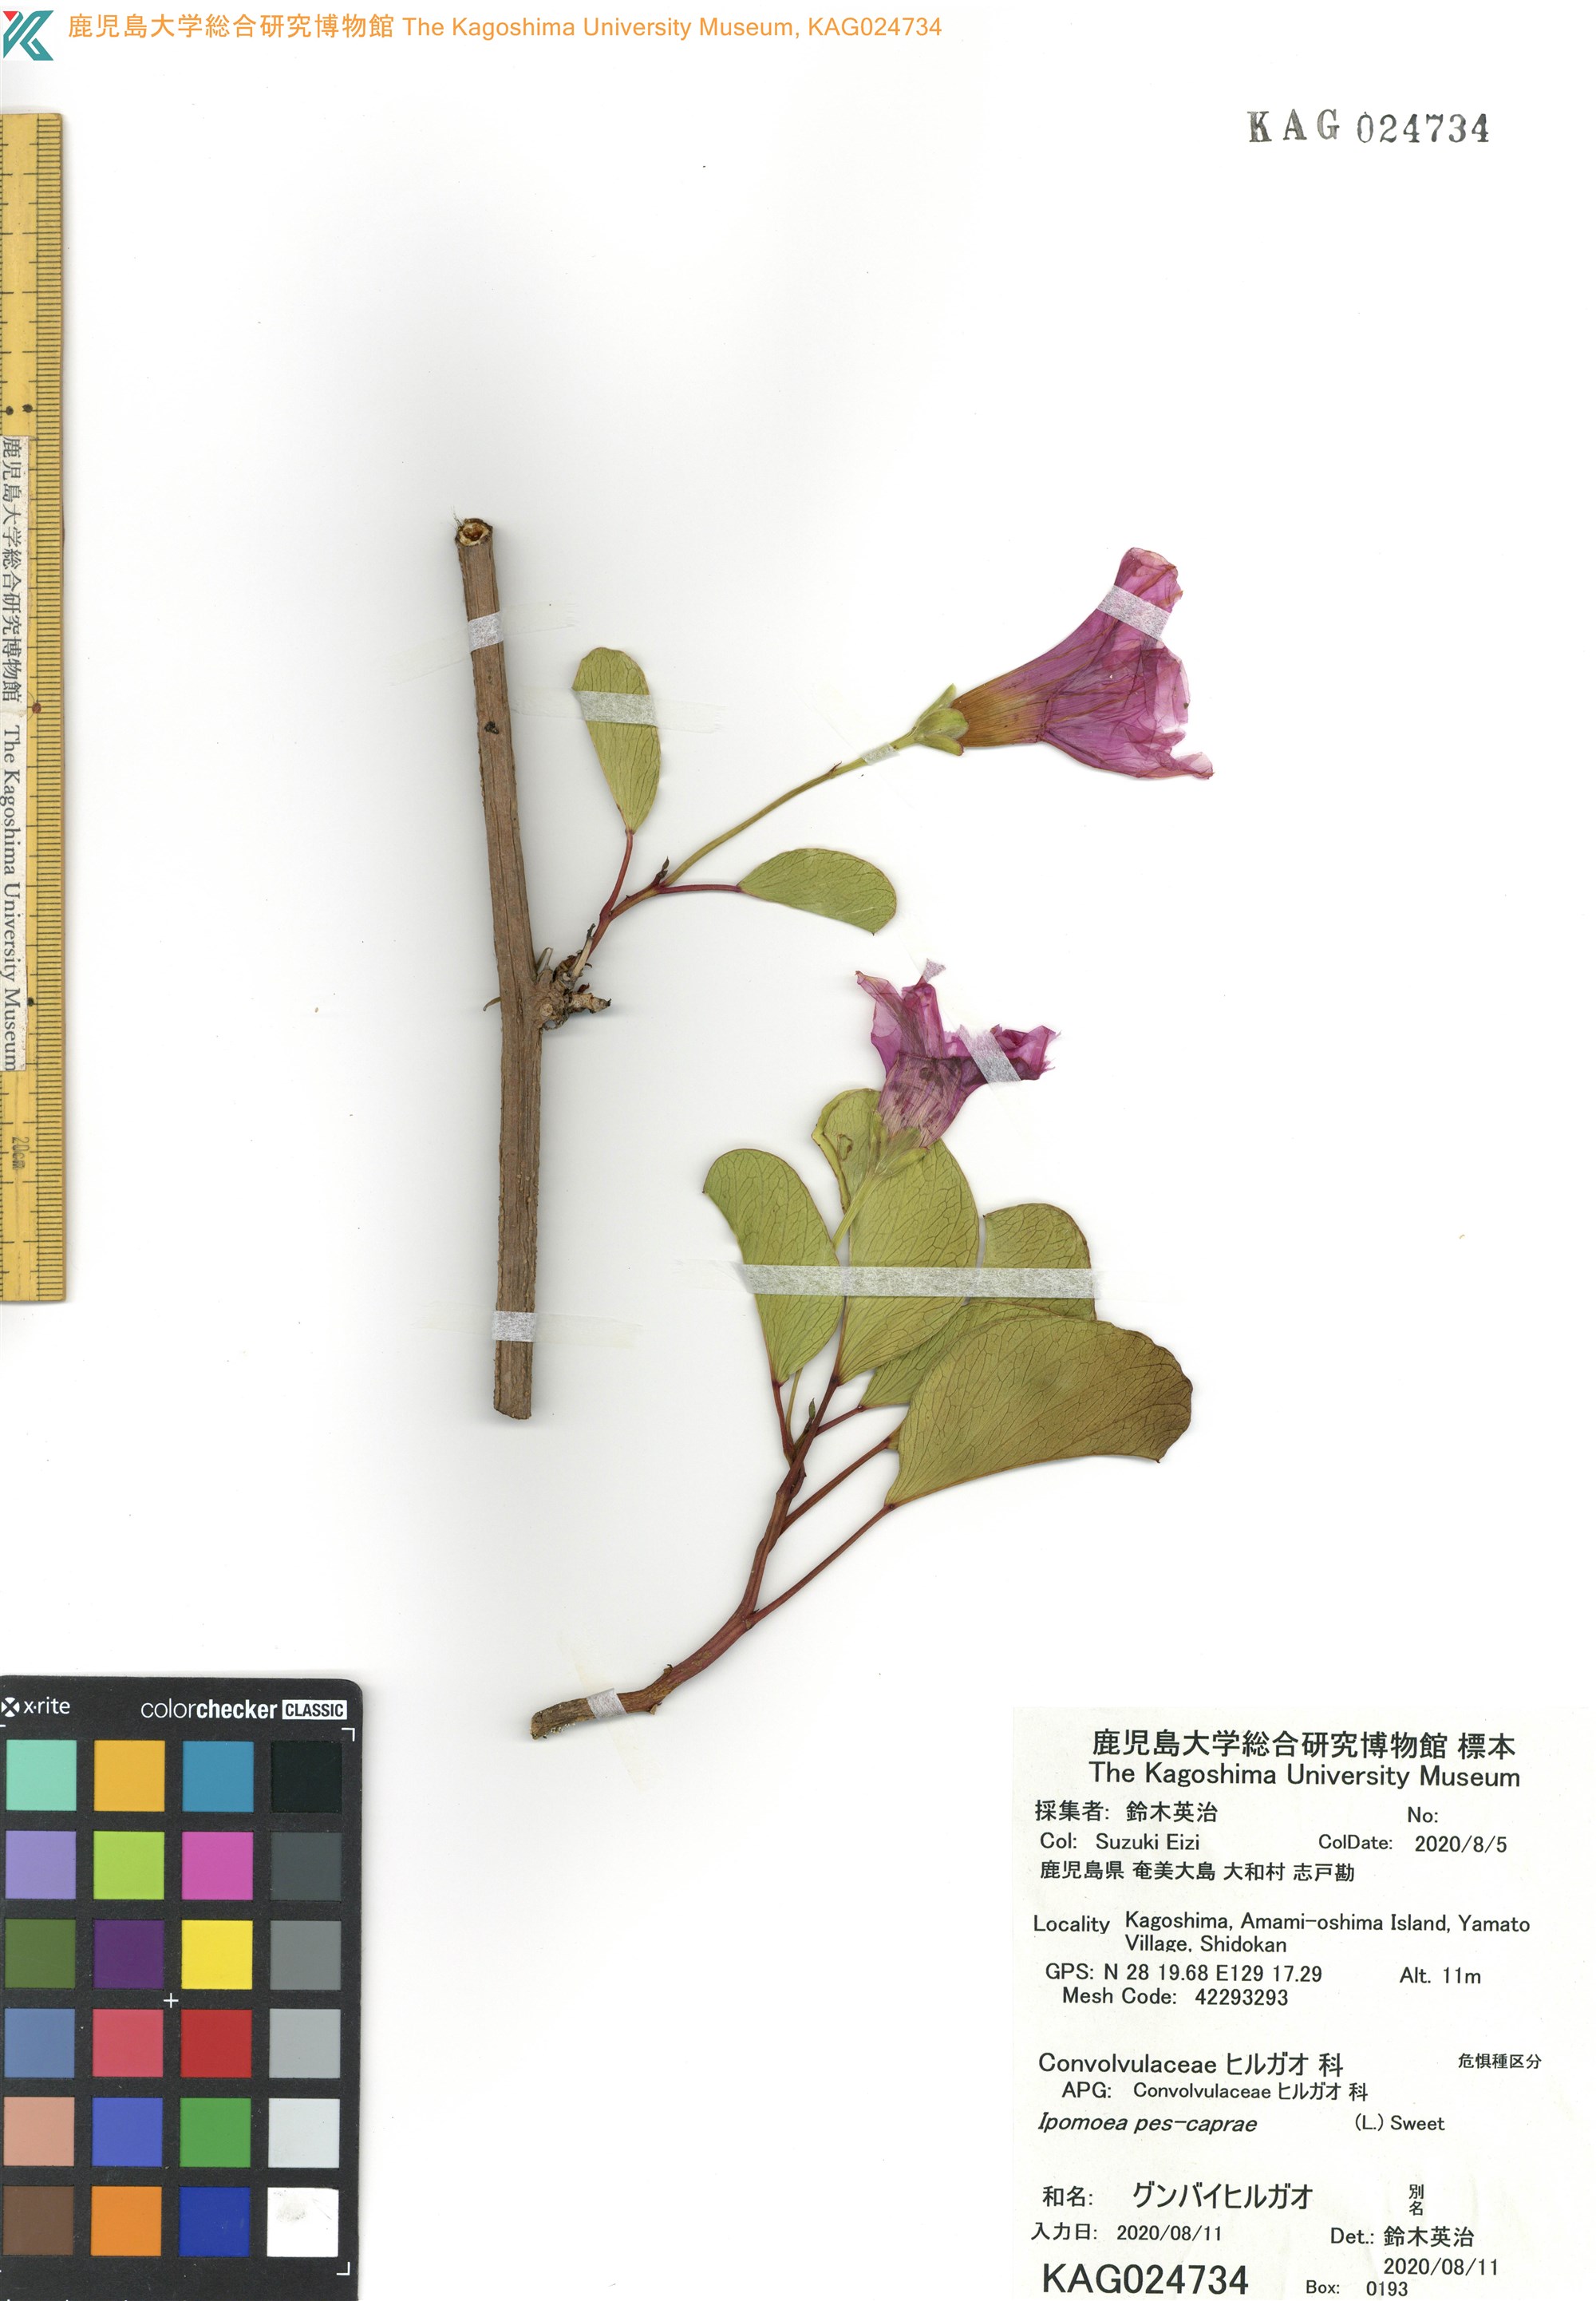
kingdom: Plantae
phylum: Tracheophyta
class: Magnoliopsida
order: Solanales
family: Convolvulaceae
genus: Ipomoea
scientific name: Ipomoea pes-caprae
